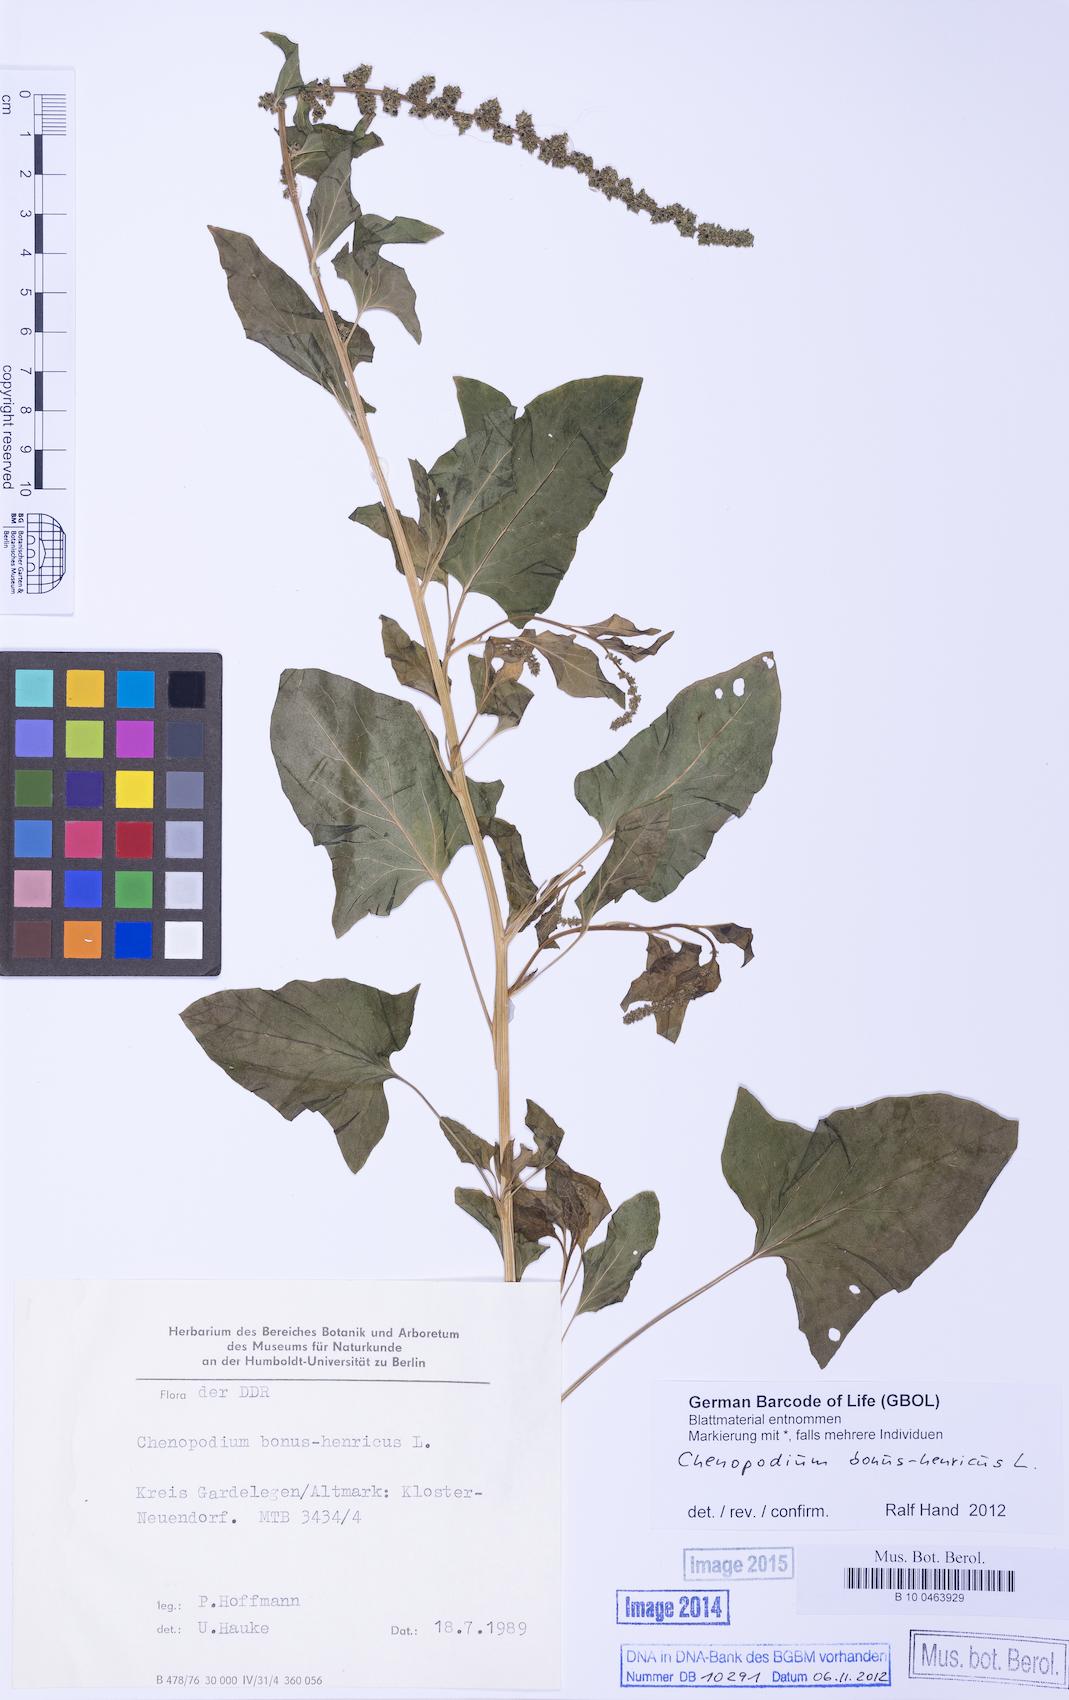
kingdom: Plantae
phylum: Tracheophyta
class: Magnoliopsida
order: Caryophyllales
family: Amaranthaceae
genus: Blitum
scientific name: Blitum bonus-henricus
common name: Good king henry
